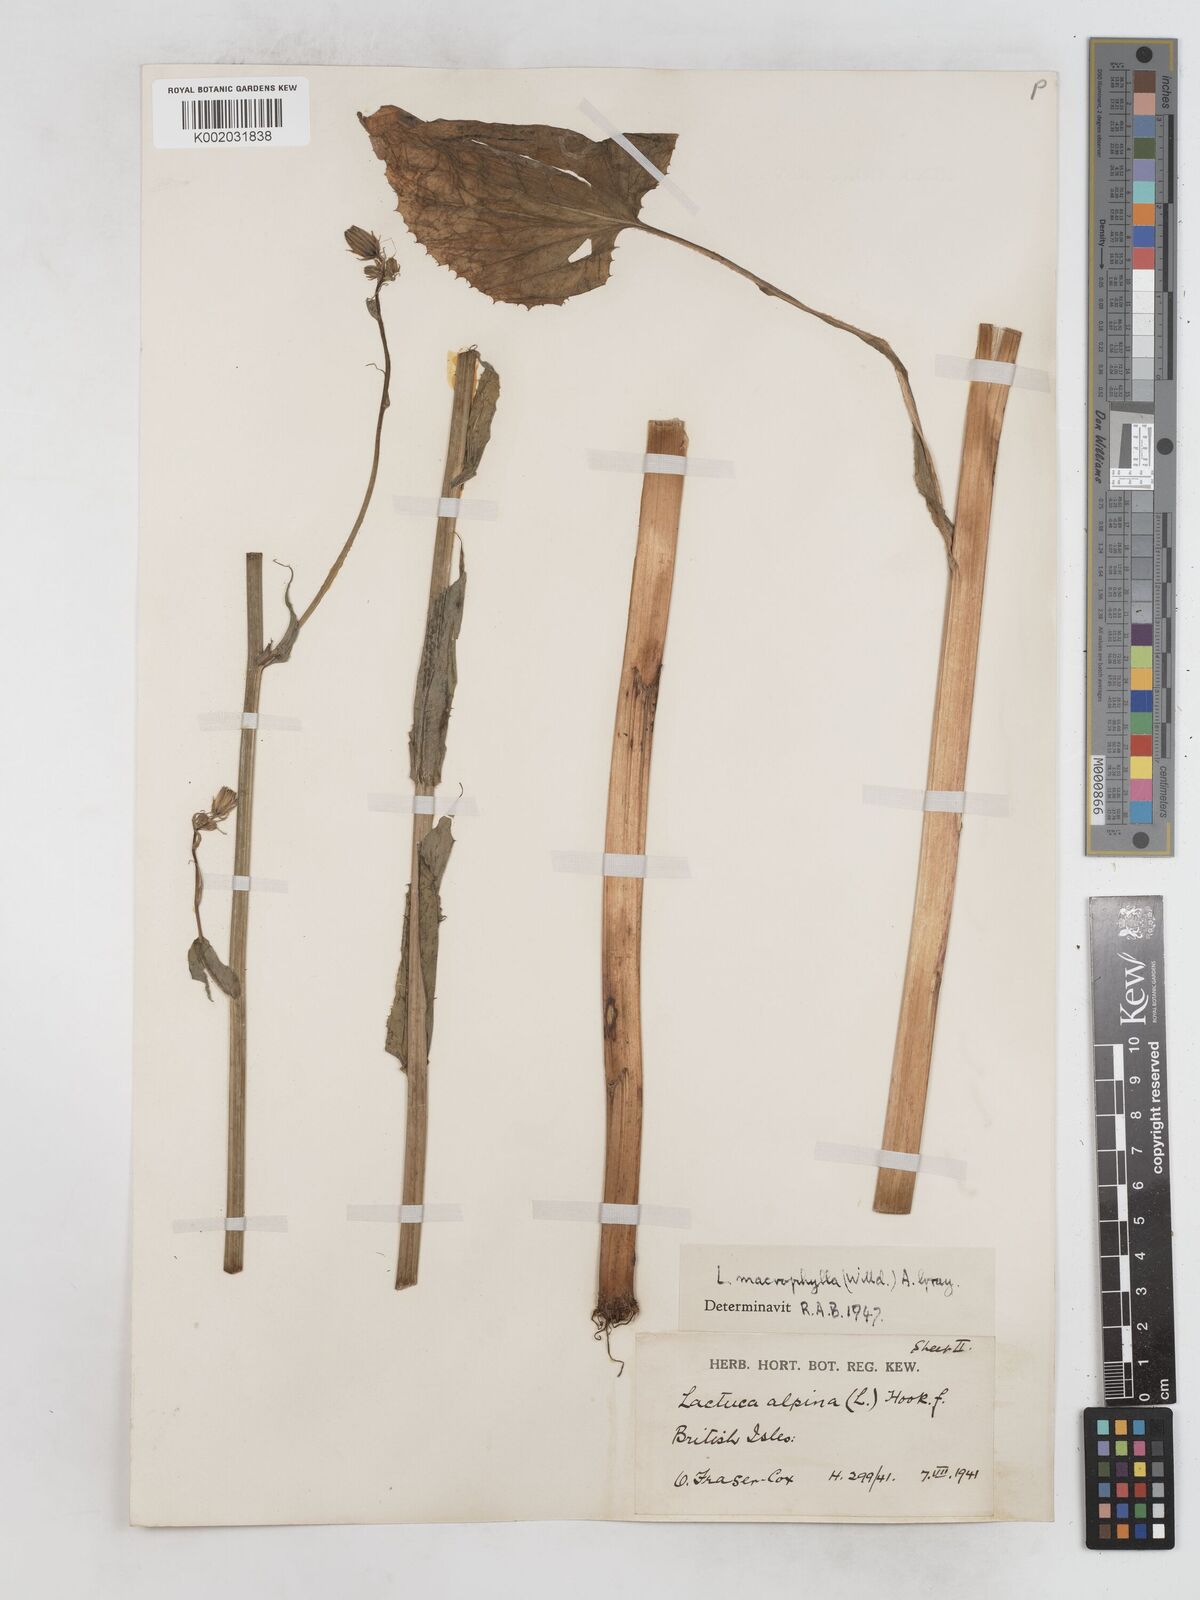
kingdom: Plantae
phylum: Tracheophyta
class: Magnoliopsida
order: Asterales
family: Asteraceae
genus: Lactuca
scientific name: Lactuca macrophylla
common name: Common blue-sow-thistle
